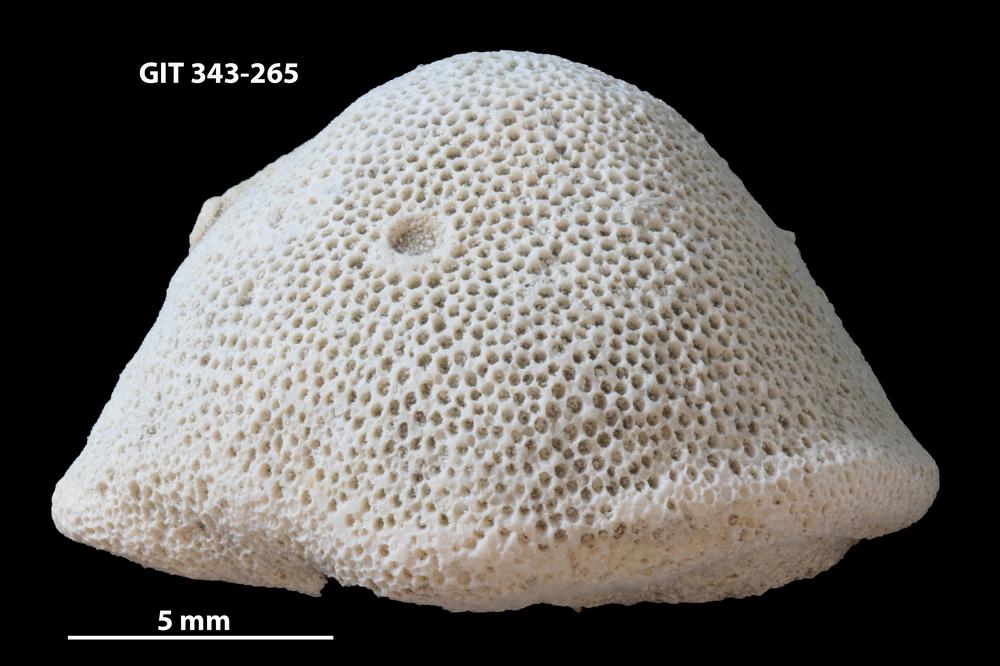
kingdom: Animalia
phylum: Bryozoa
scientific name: Bryozoa
